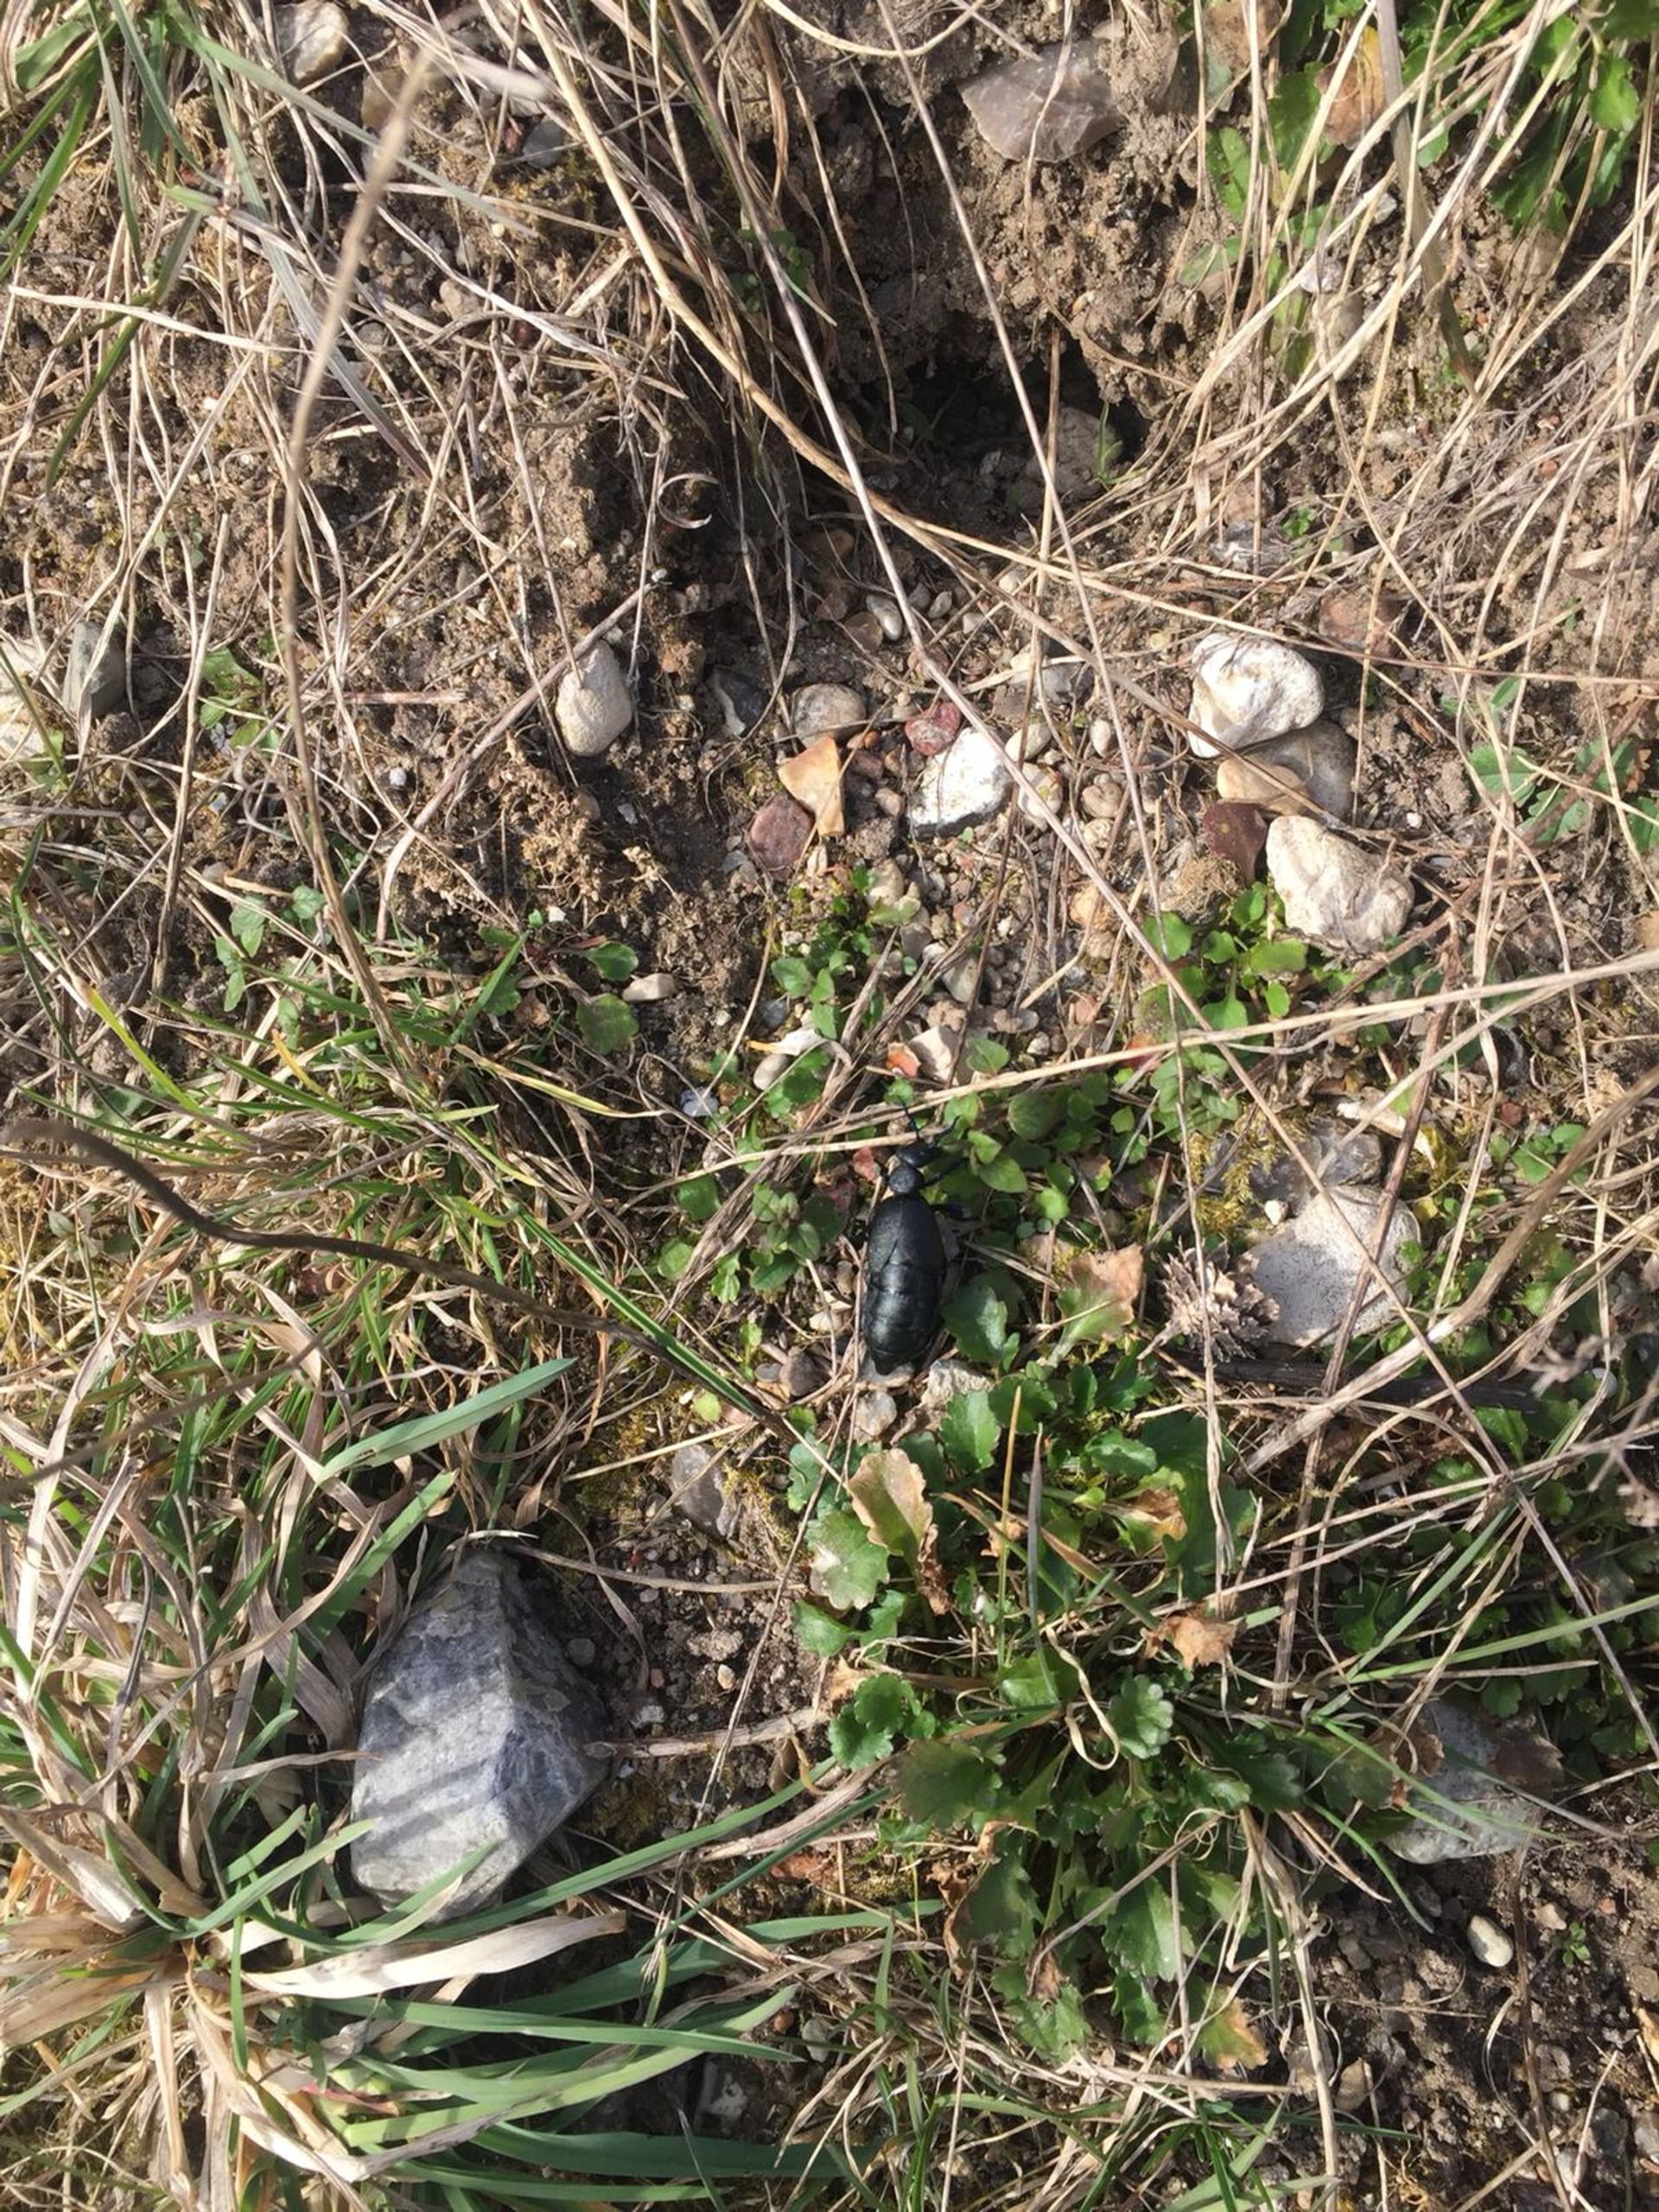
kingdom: Animalia
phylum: Arthropoda
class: Insecta
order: Coleoptera
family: Meloidae
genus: Meloe
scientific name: Meloe proscarabaeus
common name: Sort oliebille
